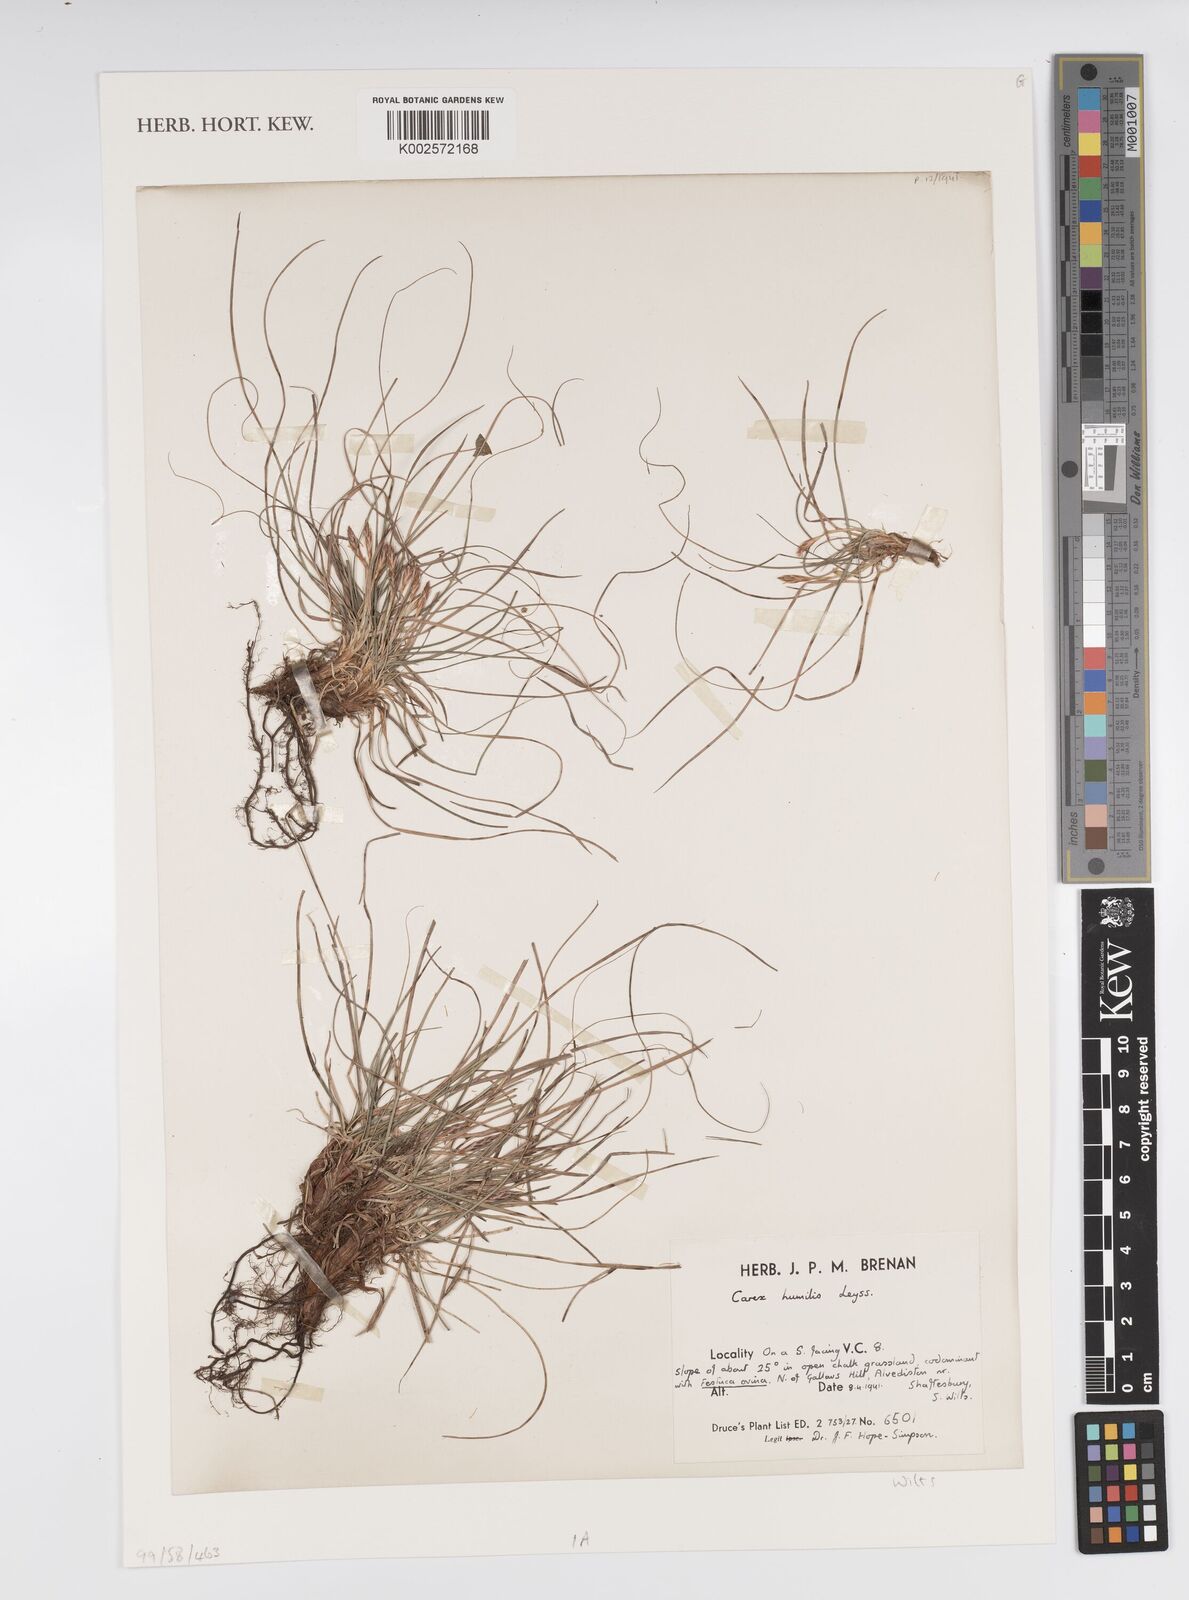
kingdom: Plantae
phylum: Tracheophyta
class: Liliopsida
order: Poales
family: Cyperaceae
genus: Carex
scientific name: Carex humilis
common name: Dwarf sedge
